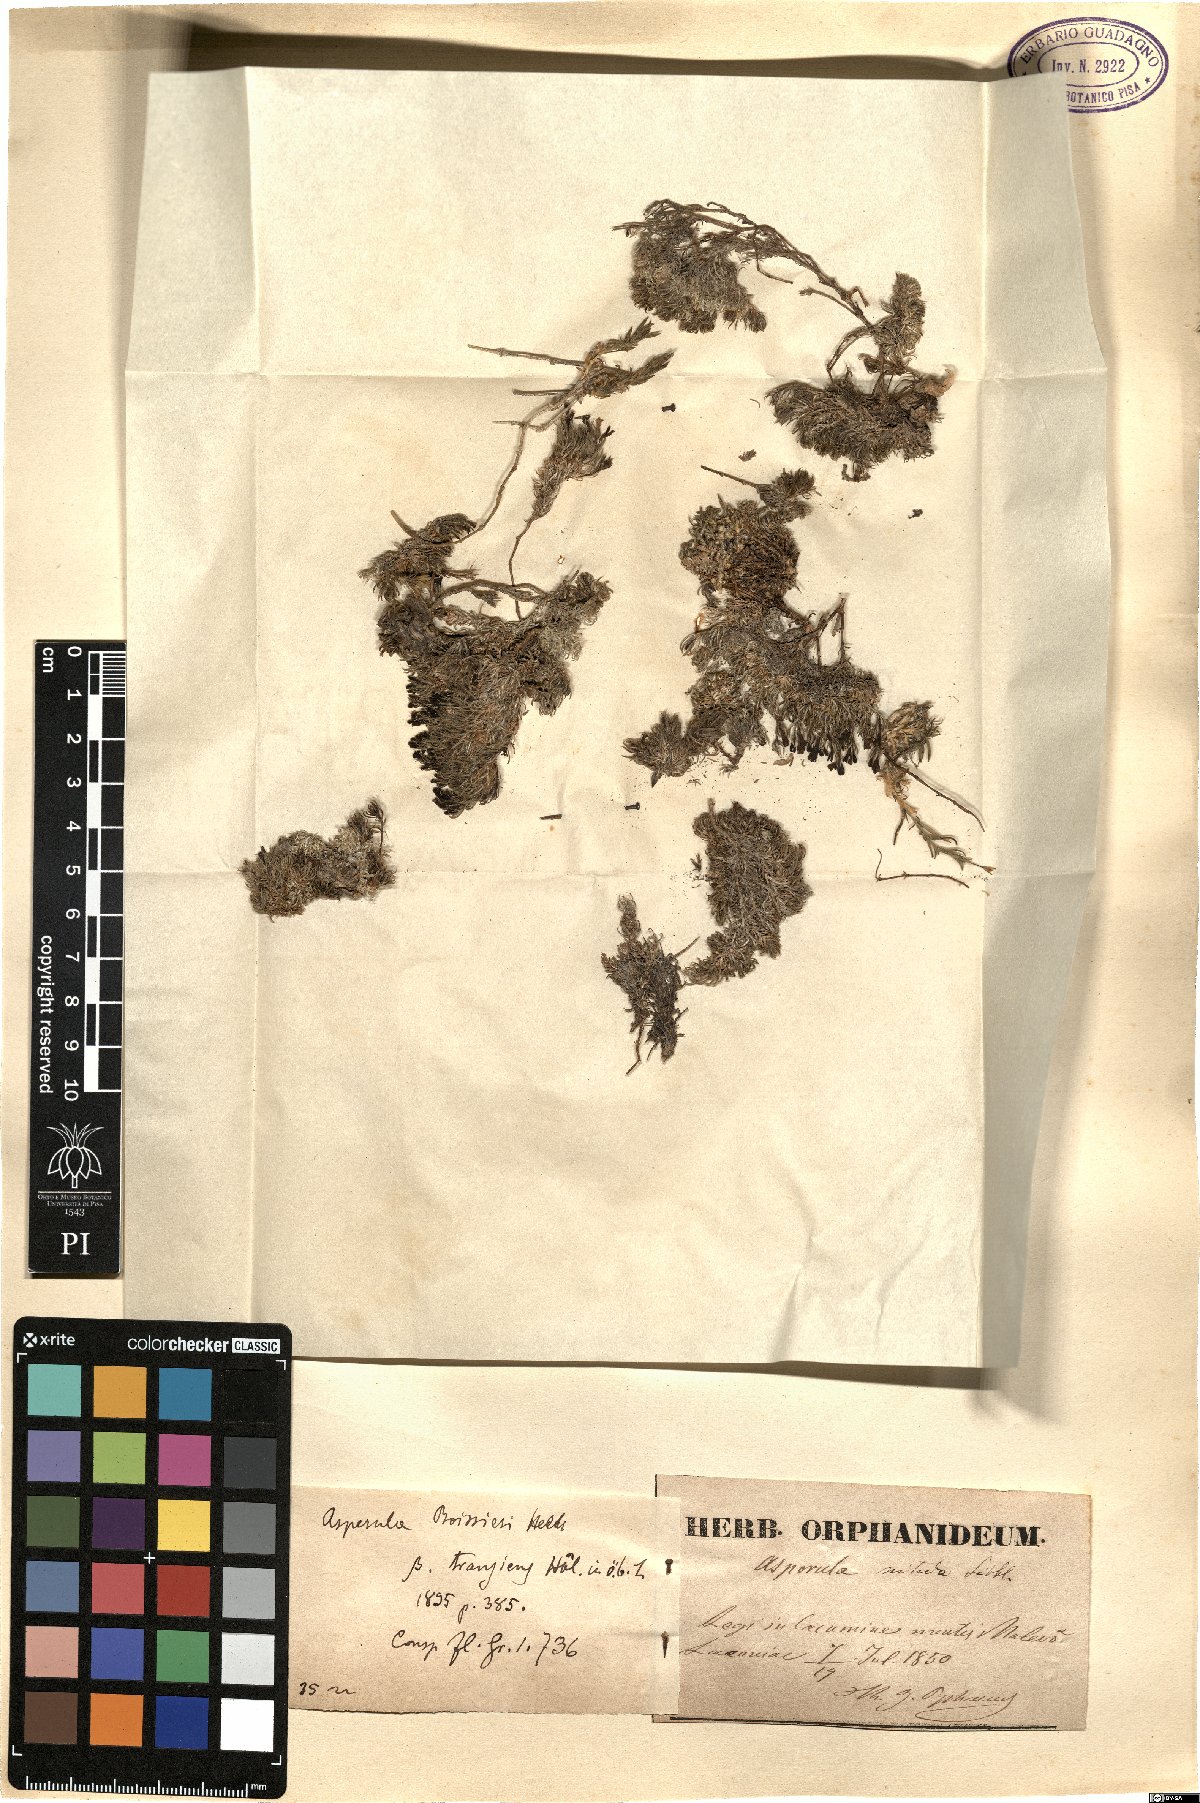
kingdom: Plantae
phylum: Tracheophyta
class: Magnoliopsida
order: Gentianales
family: Rubiaceae
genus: Cynanchica
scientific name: Cynanchica boissieri
